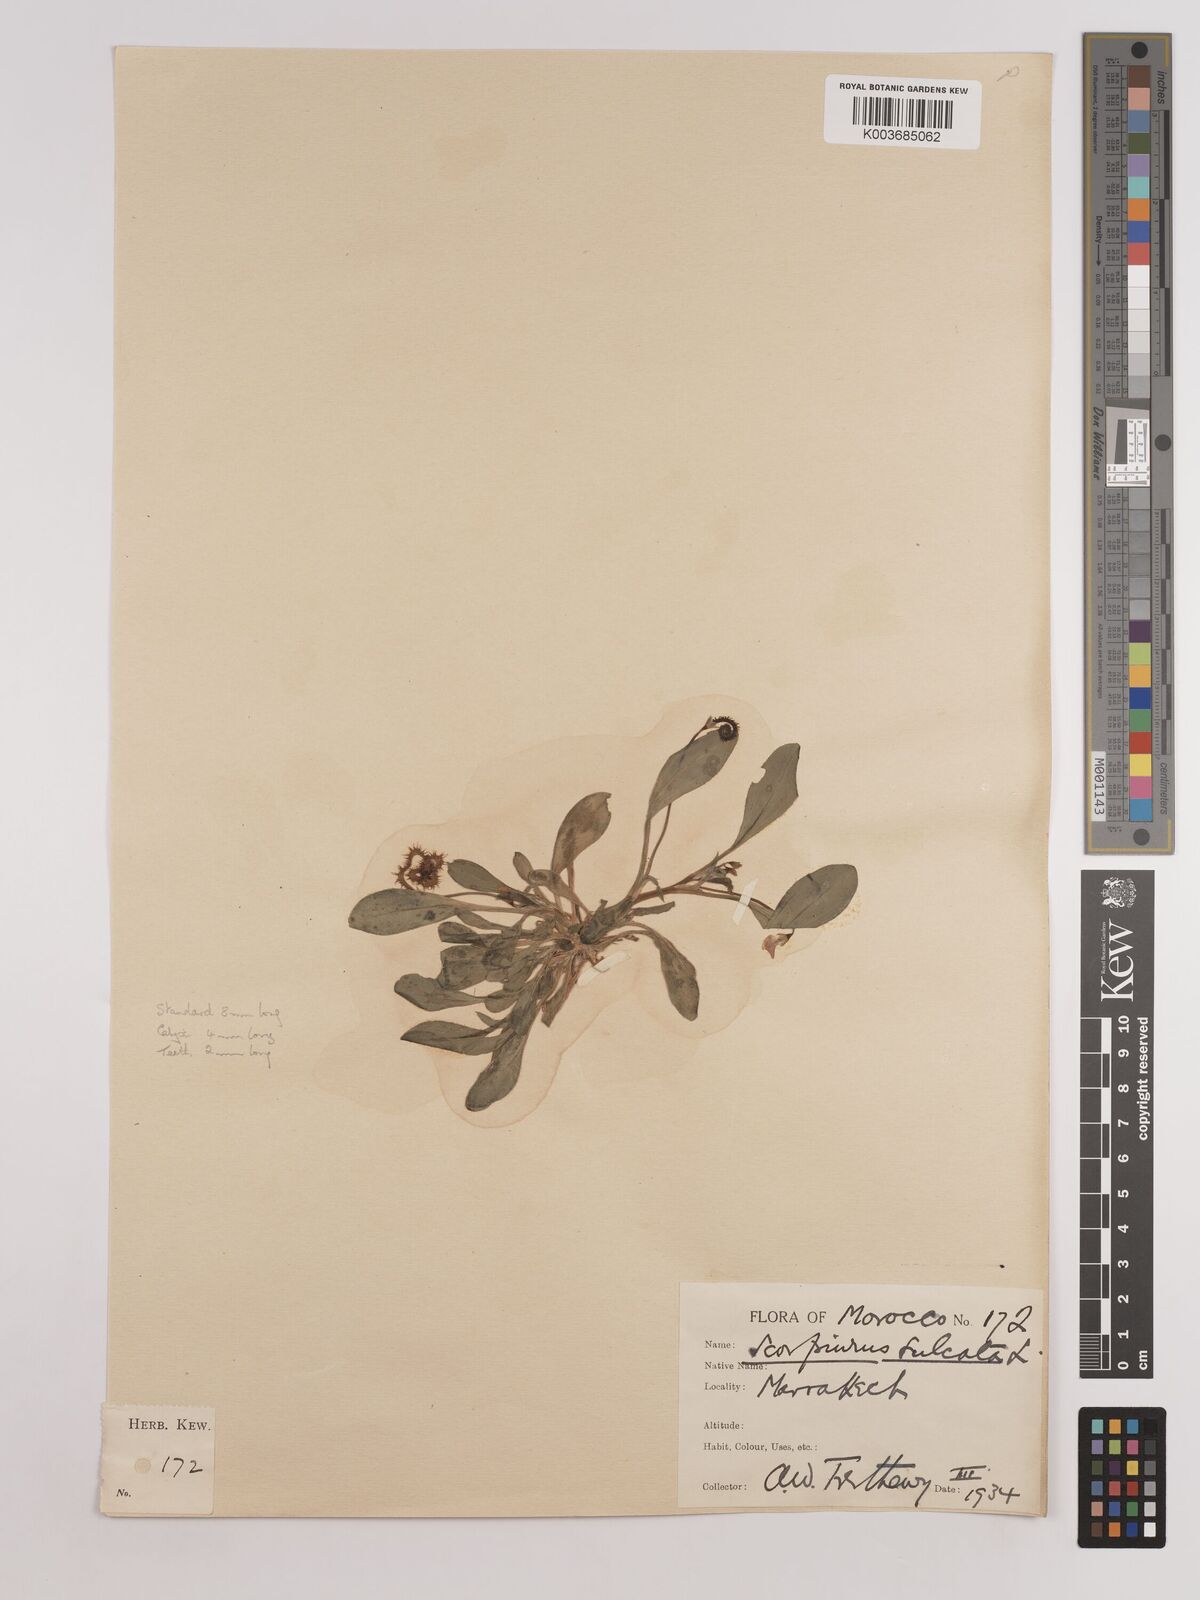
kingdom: Plantae
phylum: Tracheophyta
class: Magnoliopsida
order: Fabales
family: Fabaceae
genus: Scorpiurus
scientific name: Scorpiurus muricatus
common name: Caterpillar-plant
